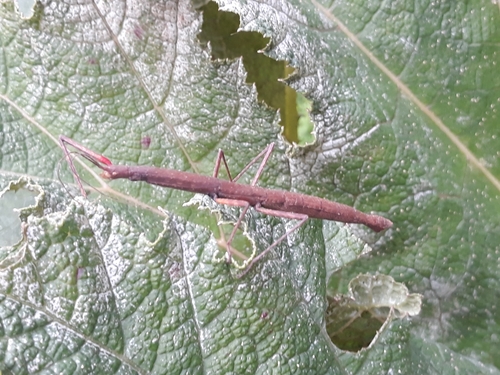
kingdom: Animalia
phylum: Arthropoda
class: Insecta
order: Phasmida
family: Lonchodidae
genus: Carausius
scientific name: Carausius morosus
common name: Indian stick insect
